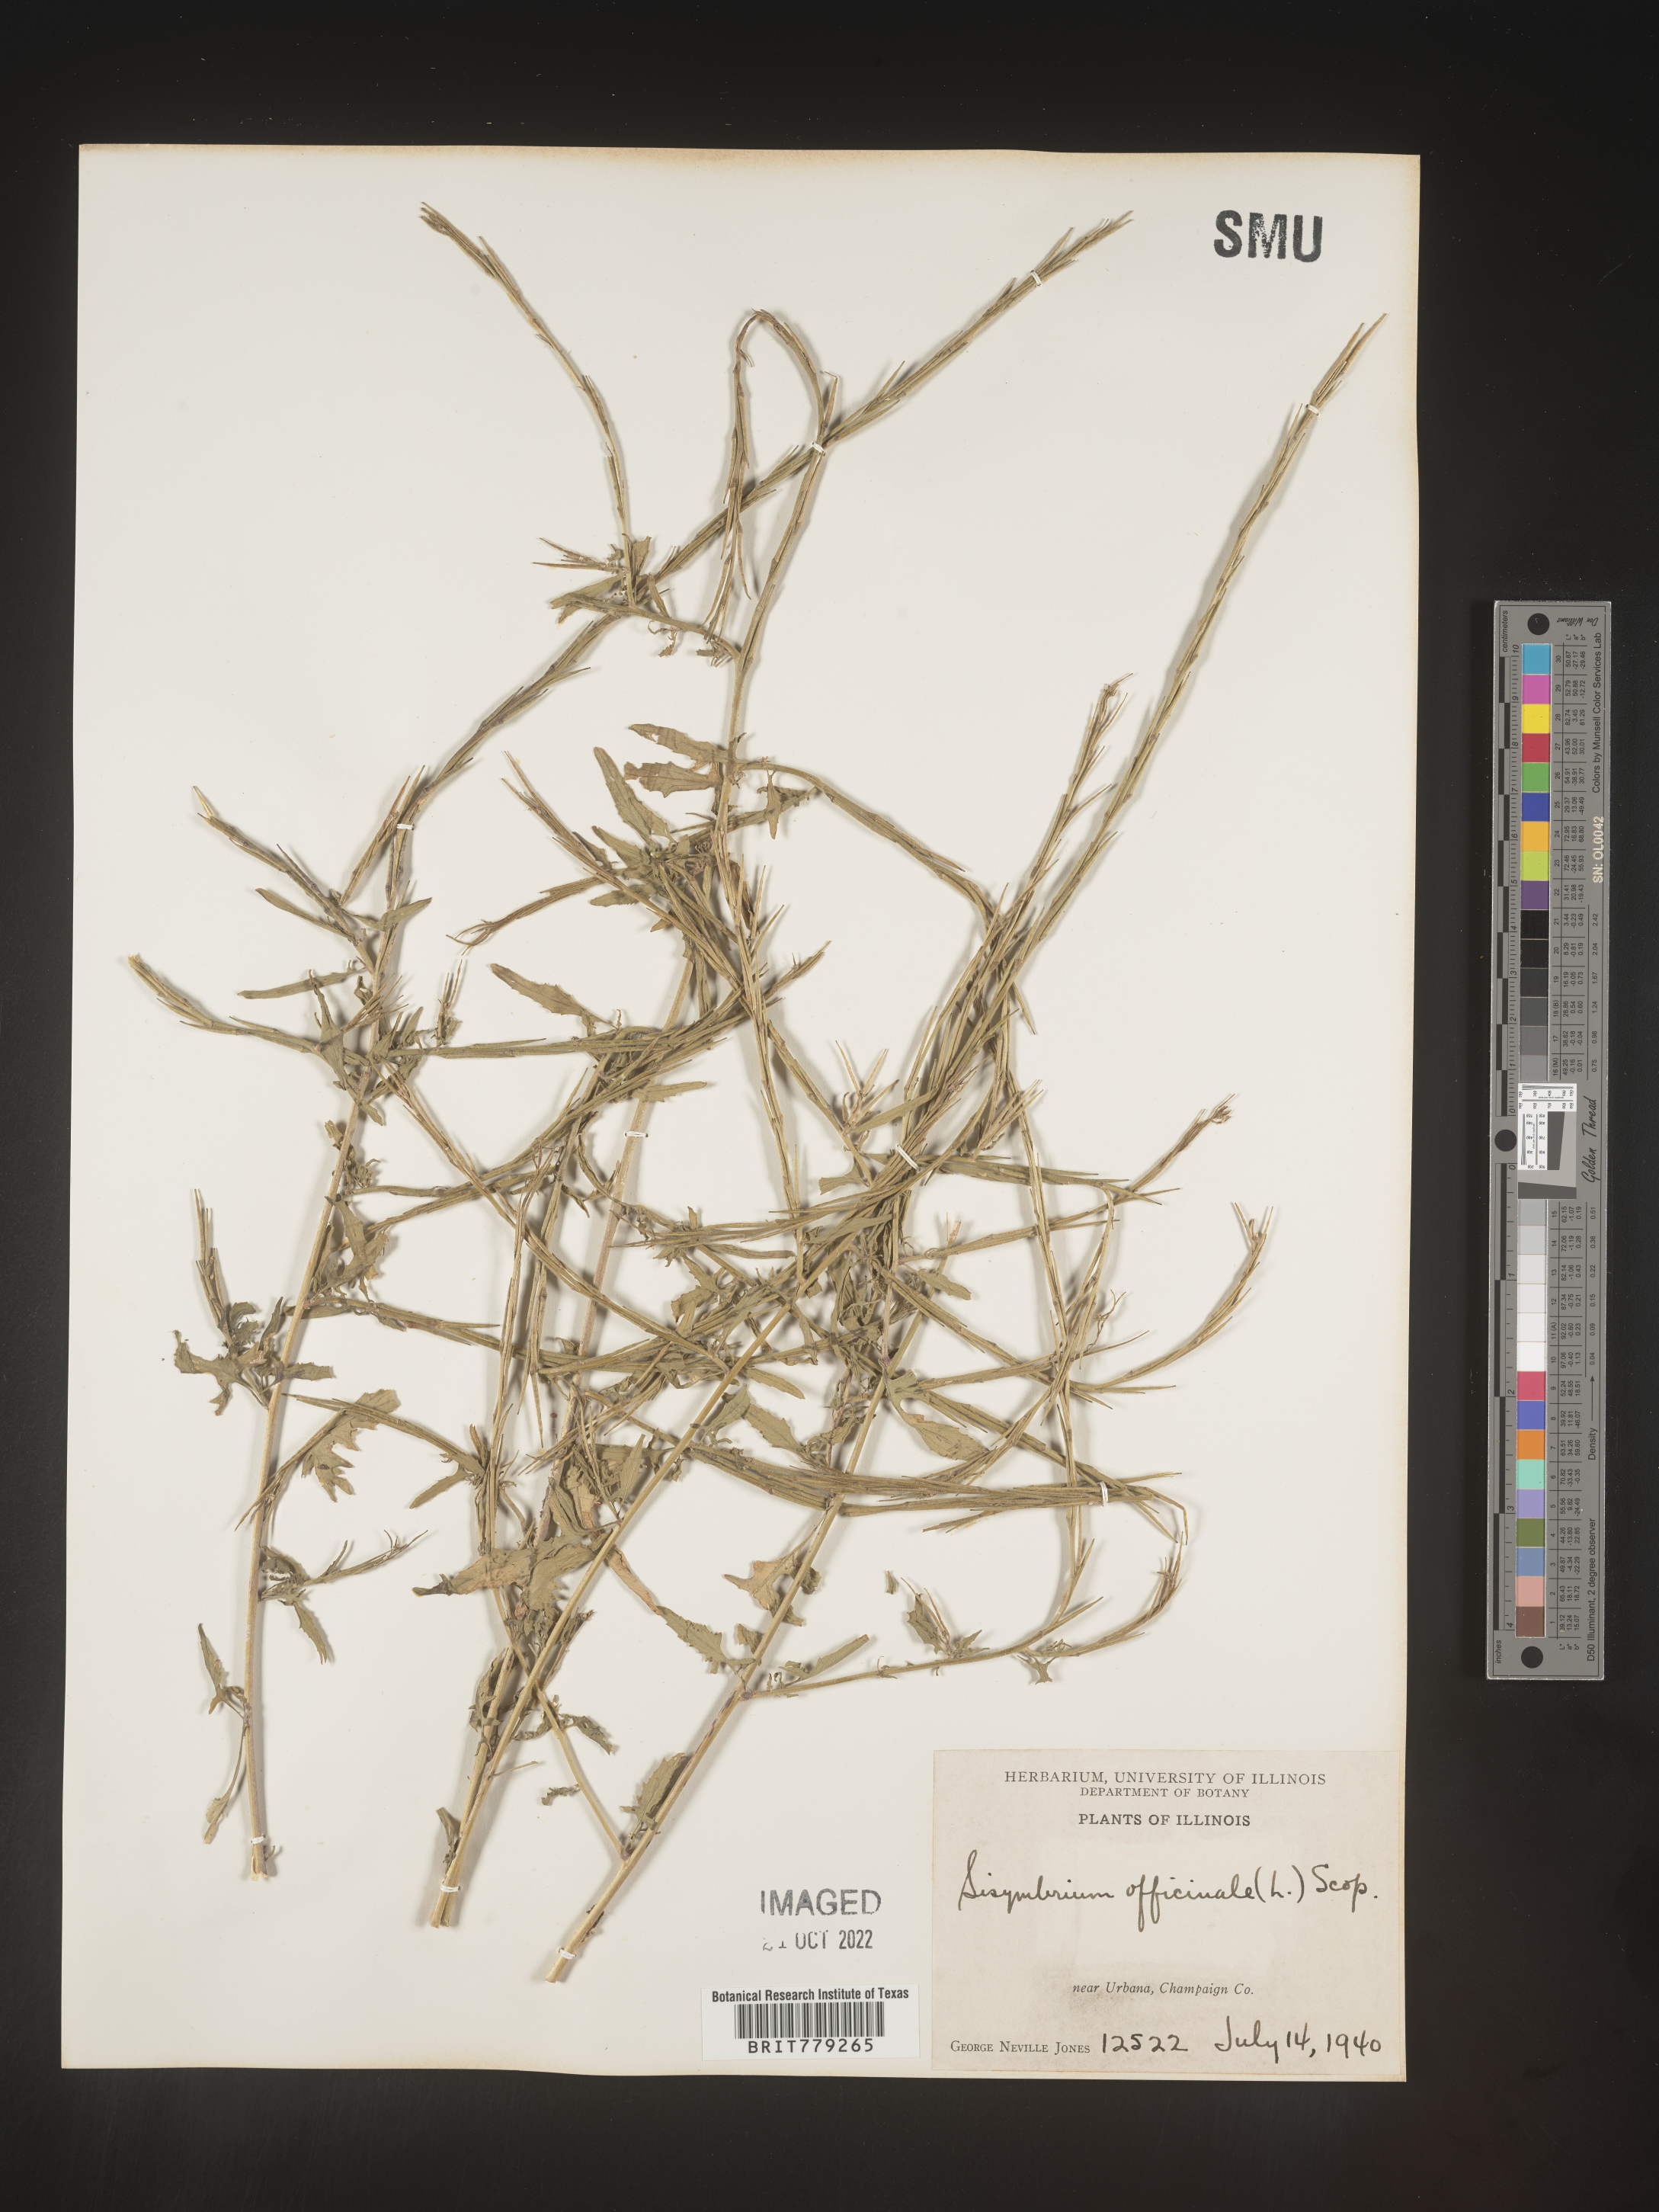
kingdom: Plantae
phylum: Tracheophyta
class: Magnoliopsida
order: Brassicales
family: Brassicaceae
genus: Sisymbrium
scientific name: Sisymbrium officinale
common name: Hedge mustard
